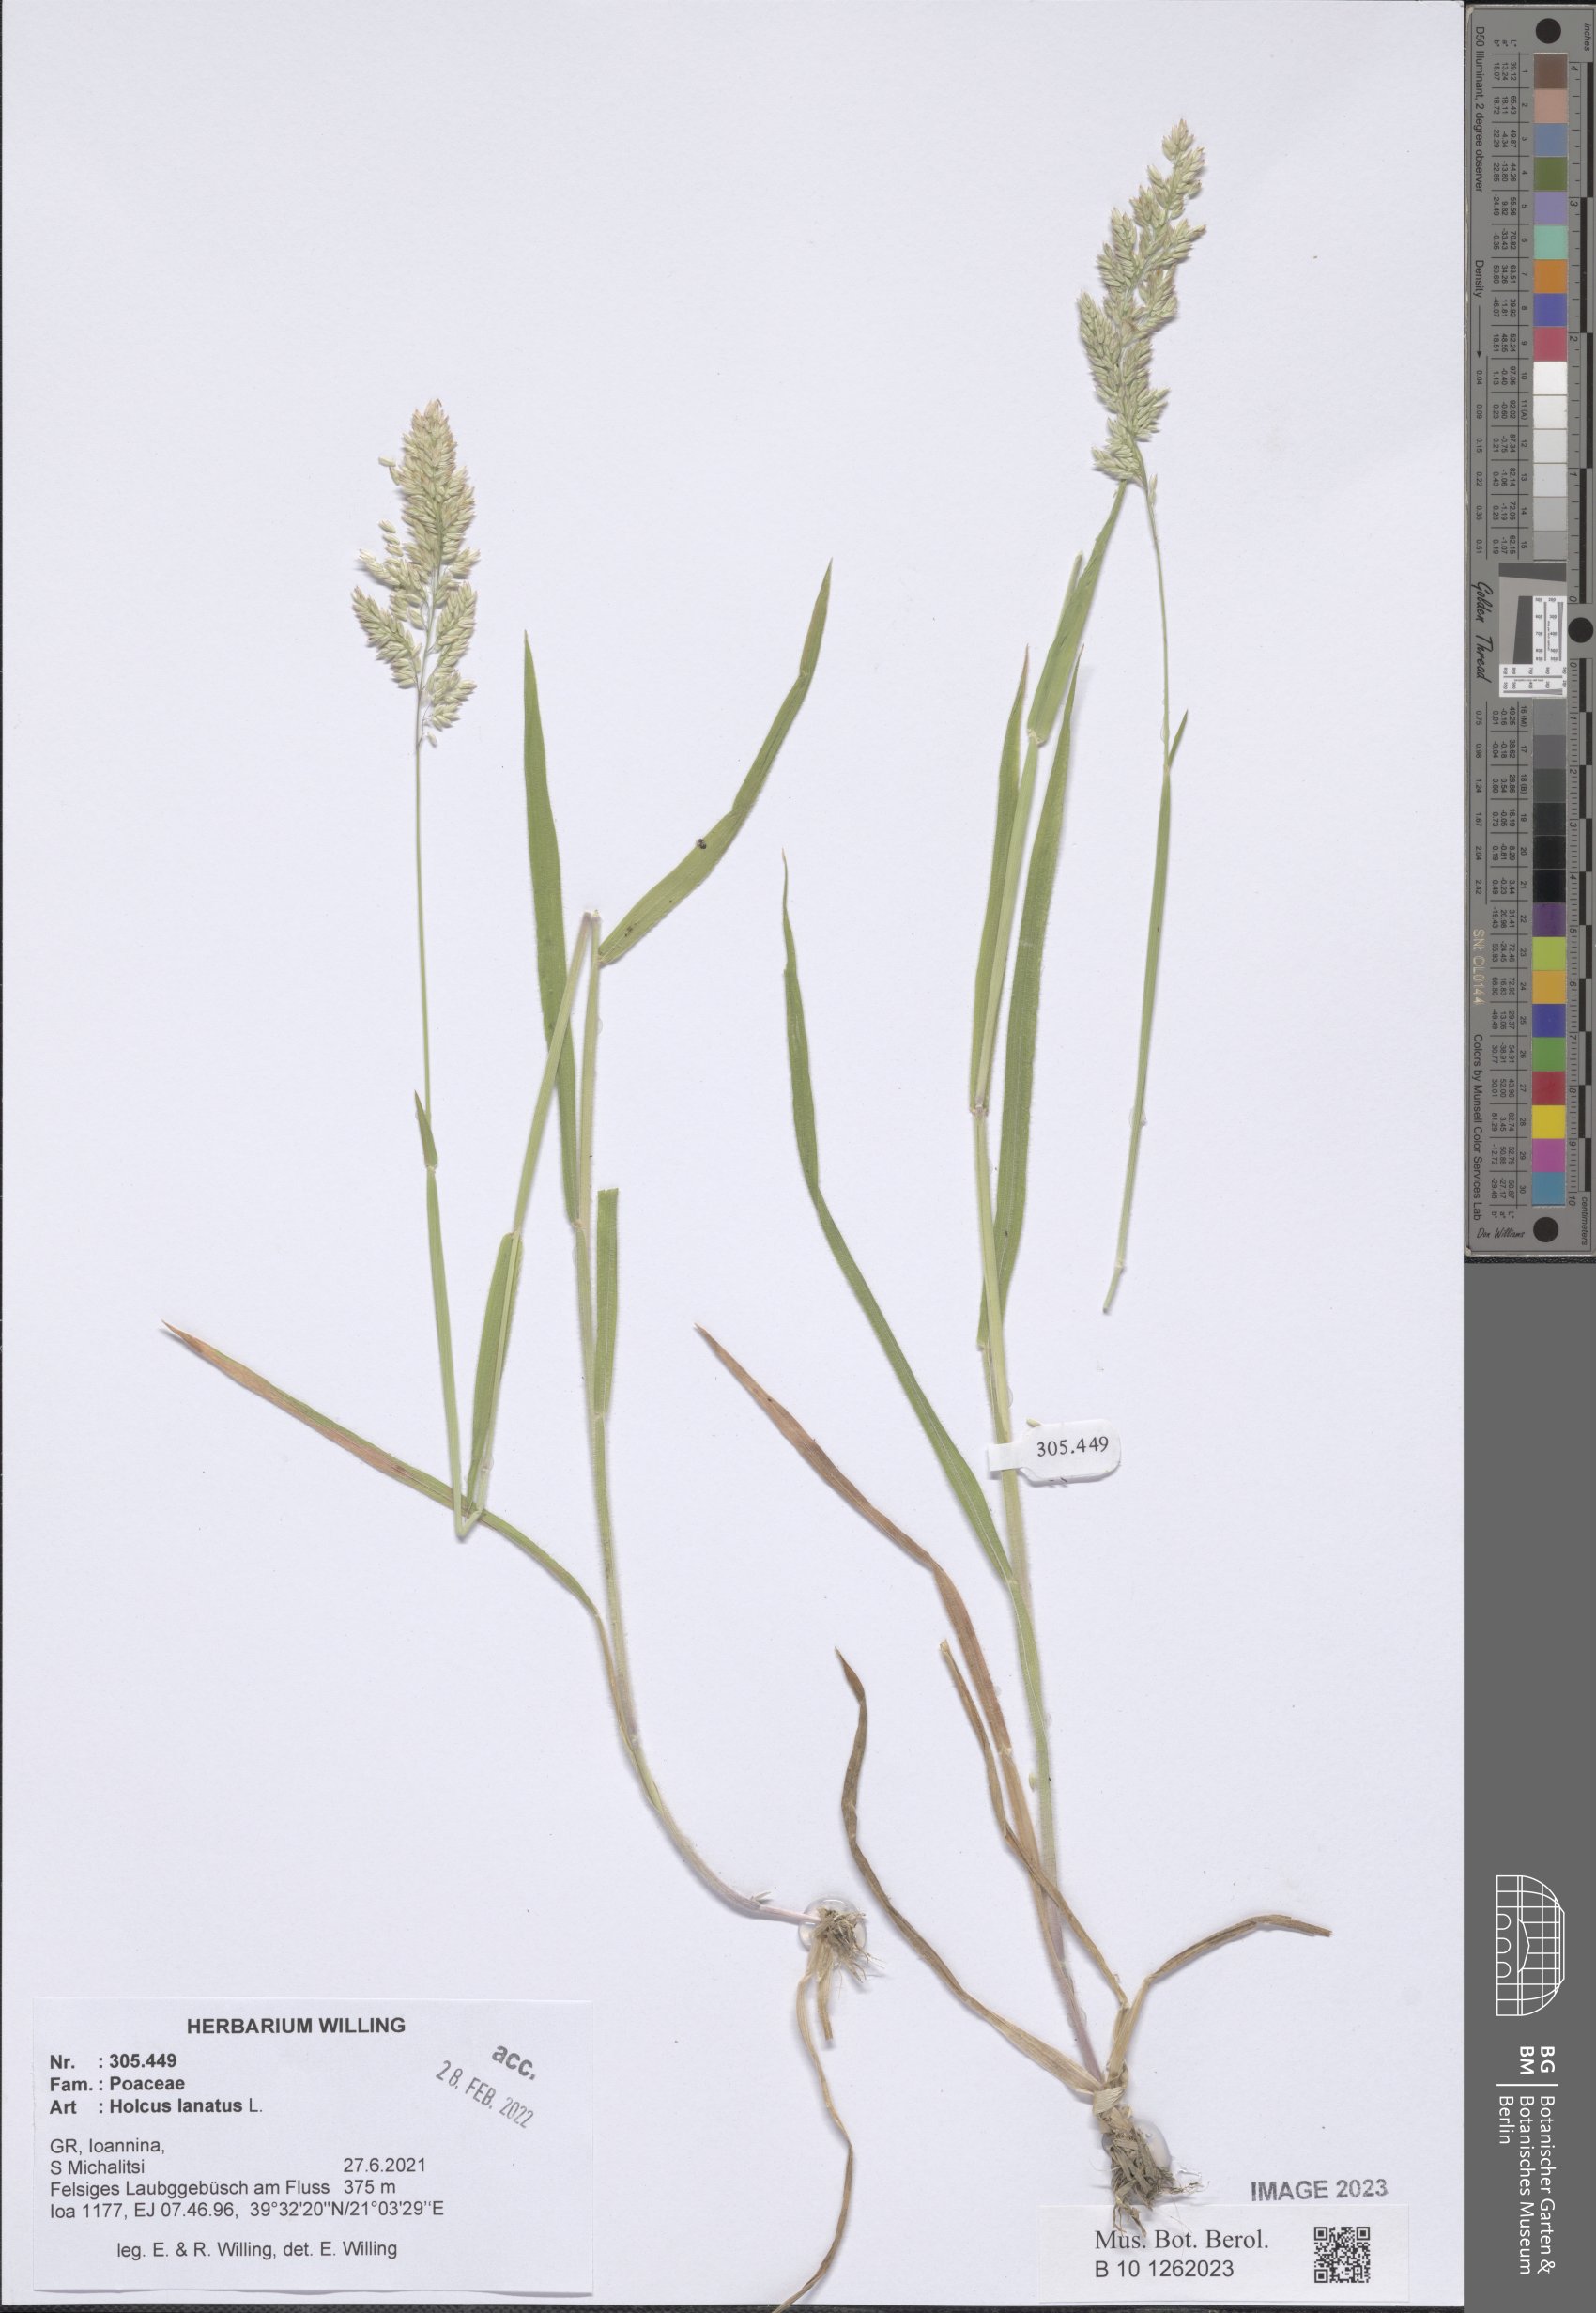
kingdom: Plantae
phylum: Tracheophyta
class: Liliopsida
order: Poales
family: Poaceae
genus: Holcus
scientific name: Holcus lanatus
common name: Yorkshire-fog
